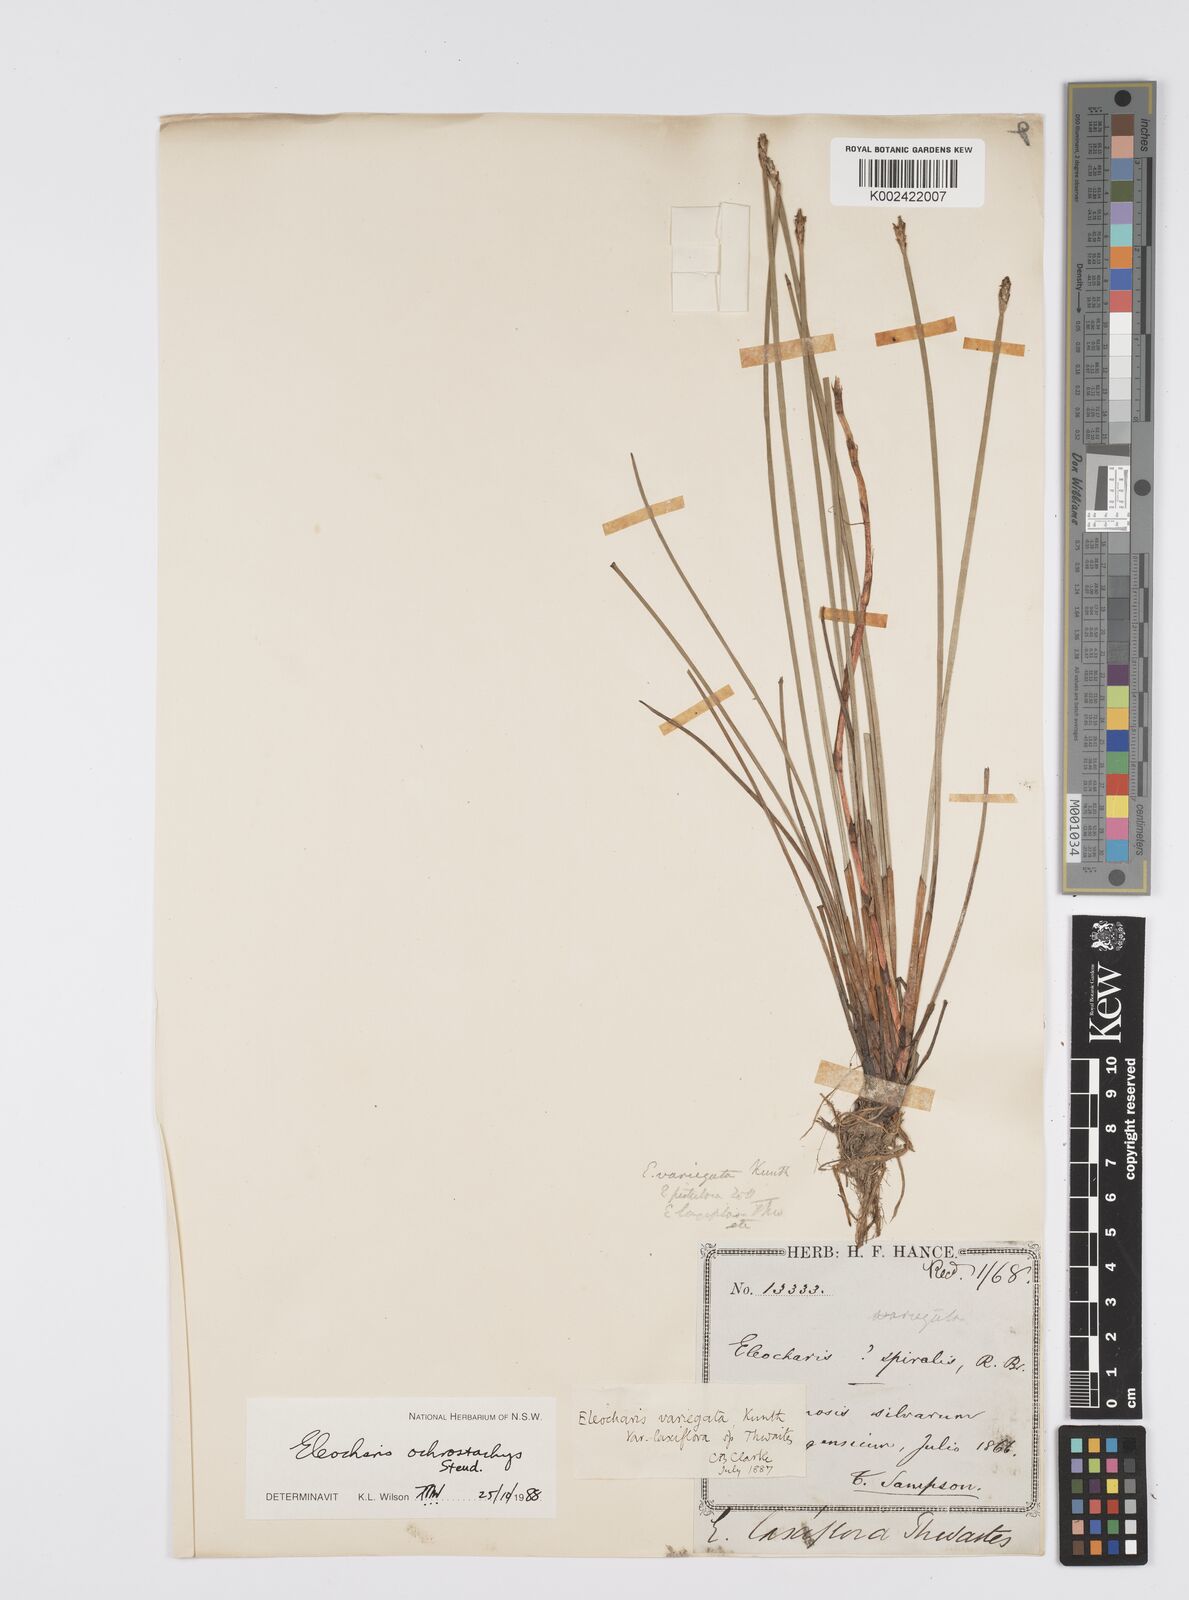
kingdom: Plantae
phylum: Tracheophyta
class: Liliopsida
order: Poales
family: Cyperaceae
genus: Eleocharis
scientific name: Eleocharis variegata
